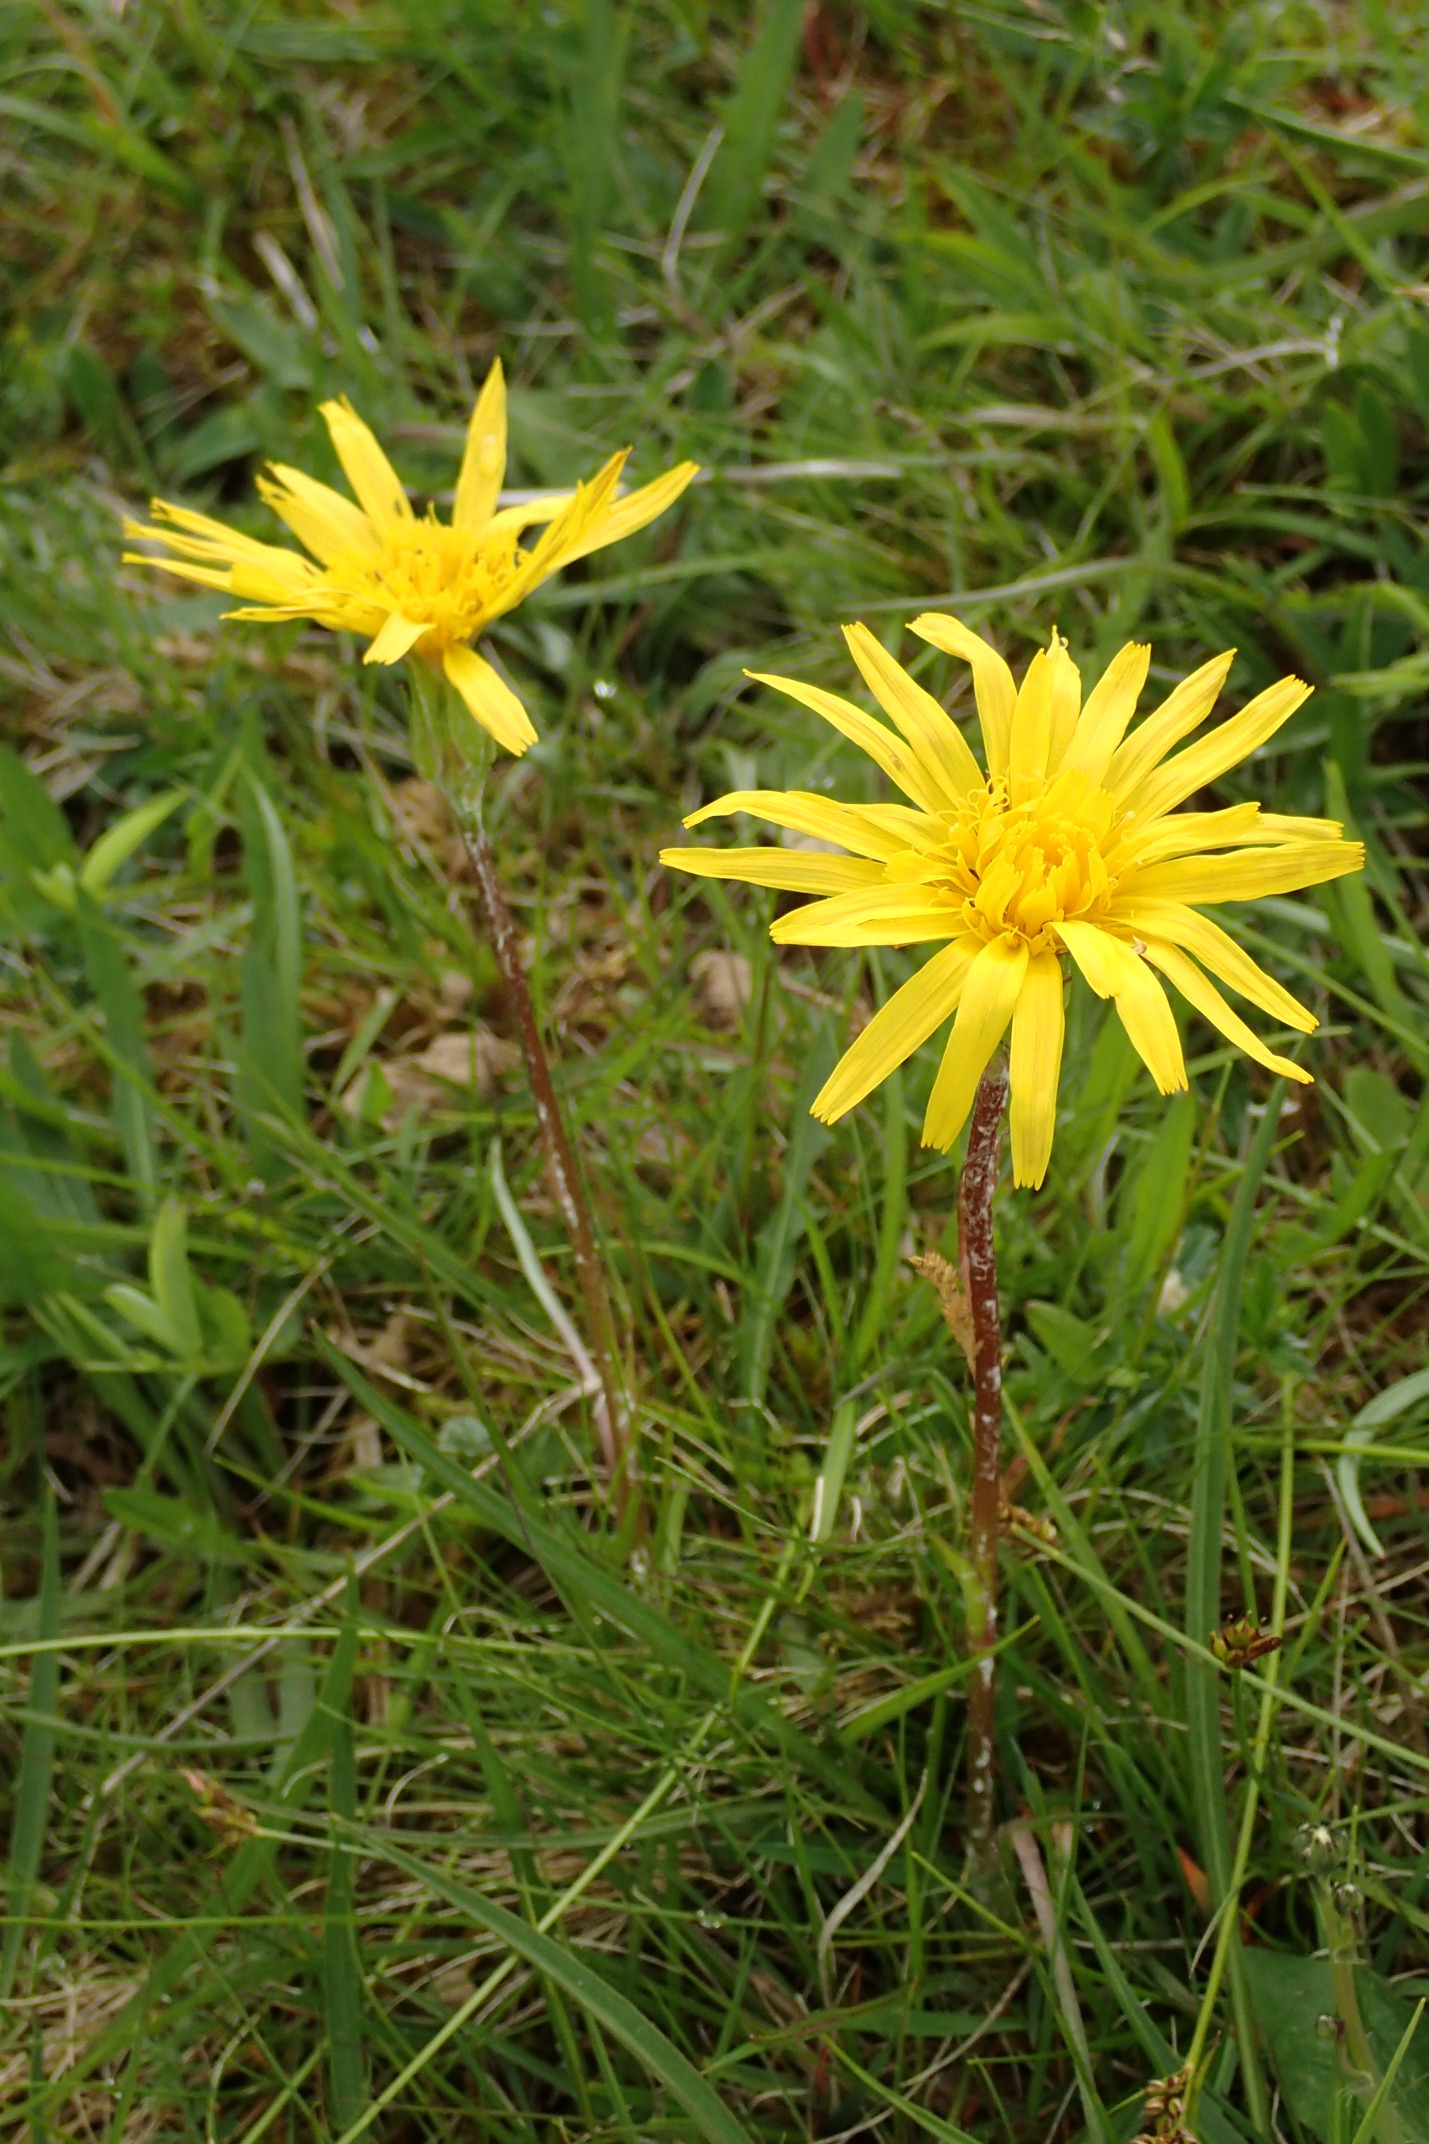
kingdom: Plantae
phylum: Tracheophyta
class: Magnoliopsida
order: Asterales
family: Asteraceae
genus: Scorzonera
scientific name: Scorzonera humilis
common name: Lav skorsoner
